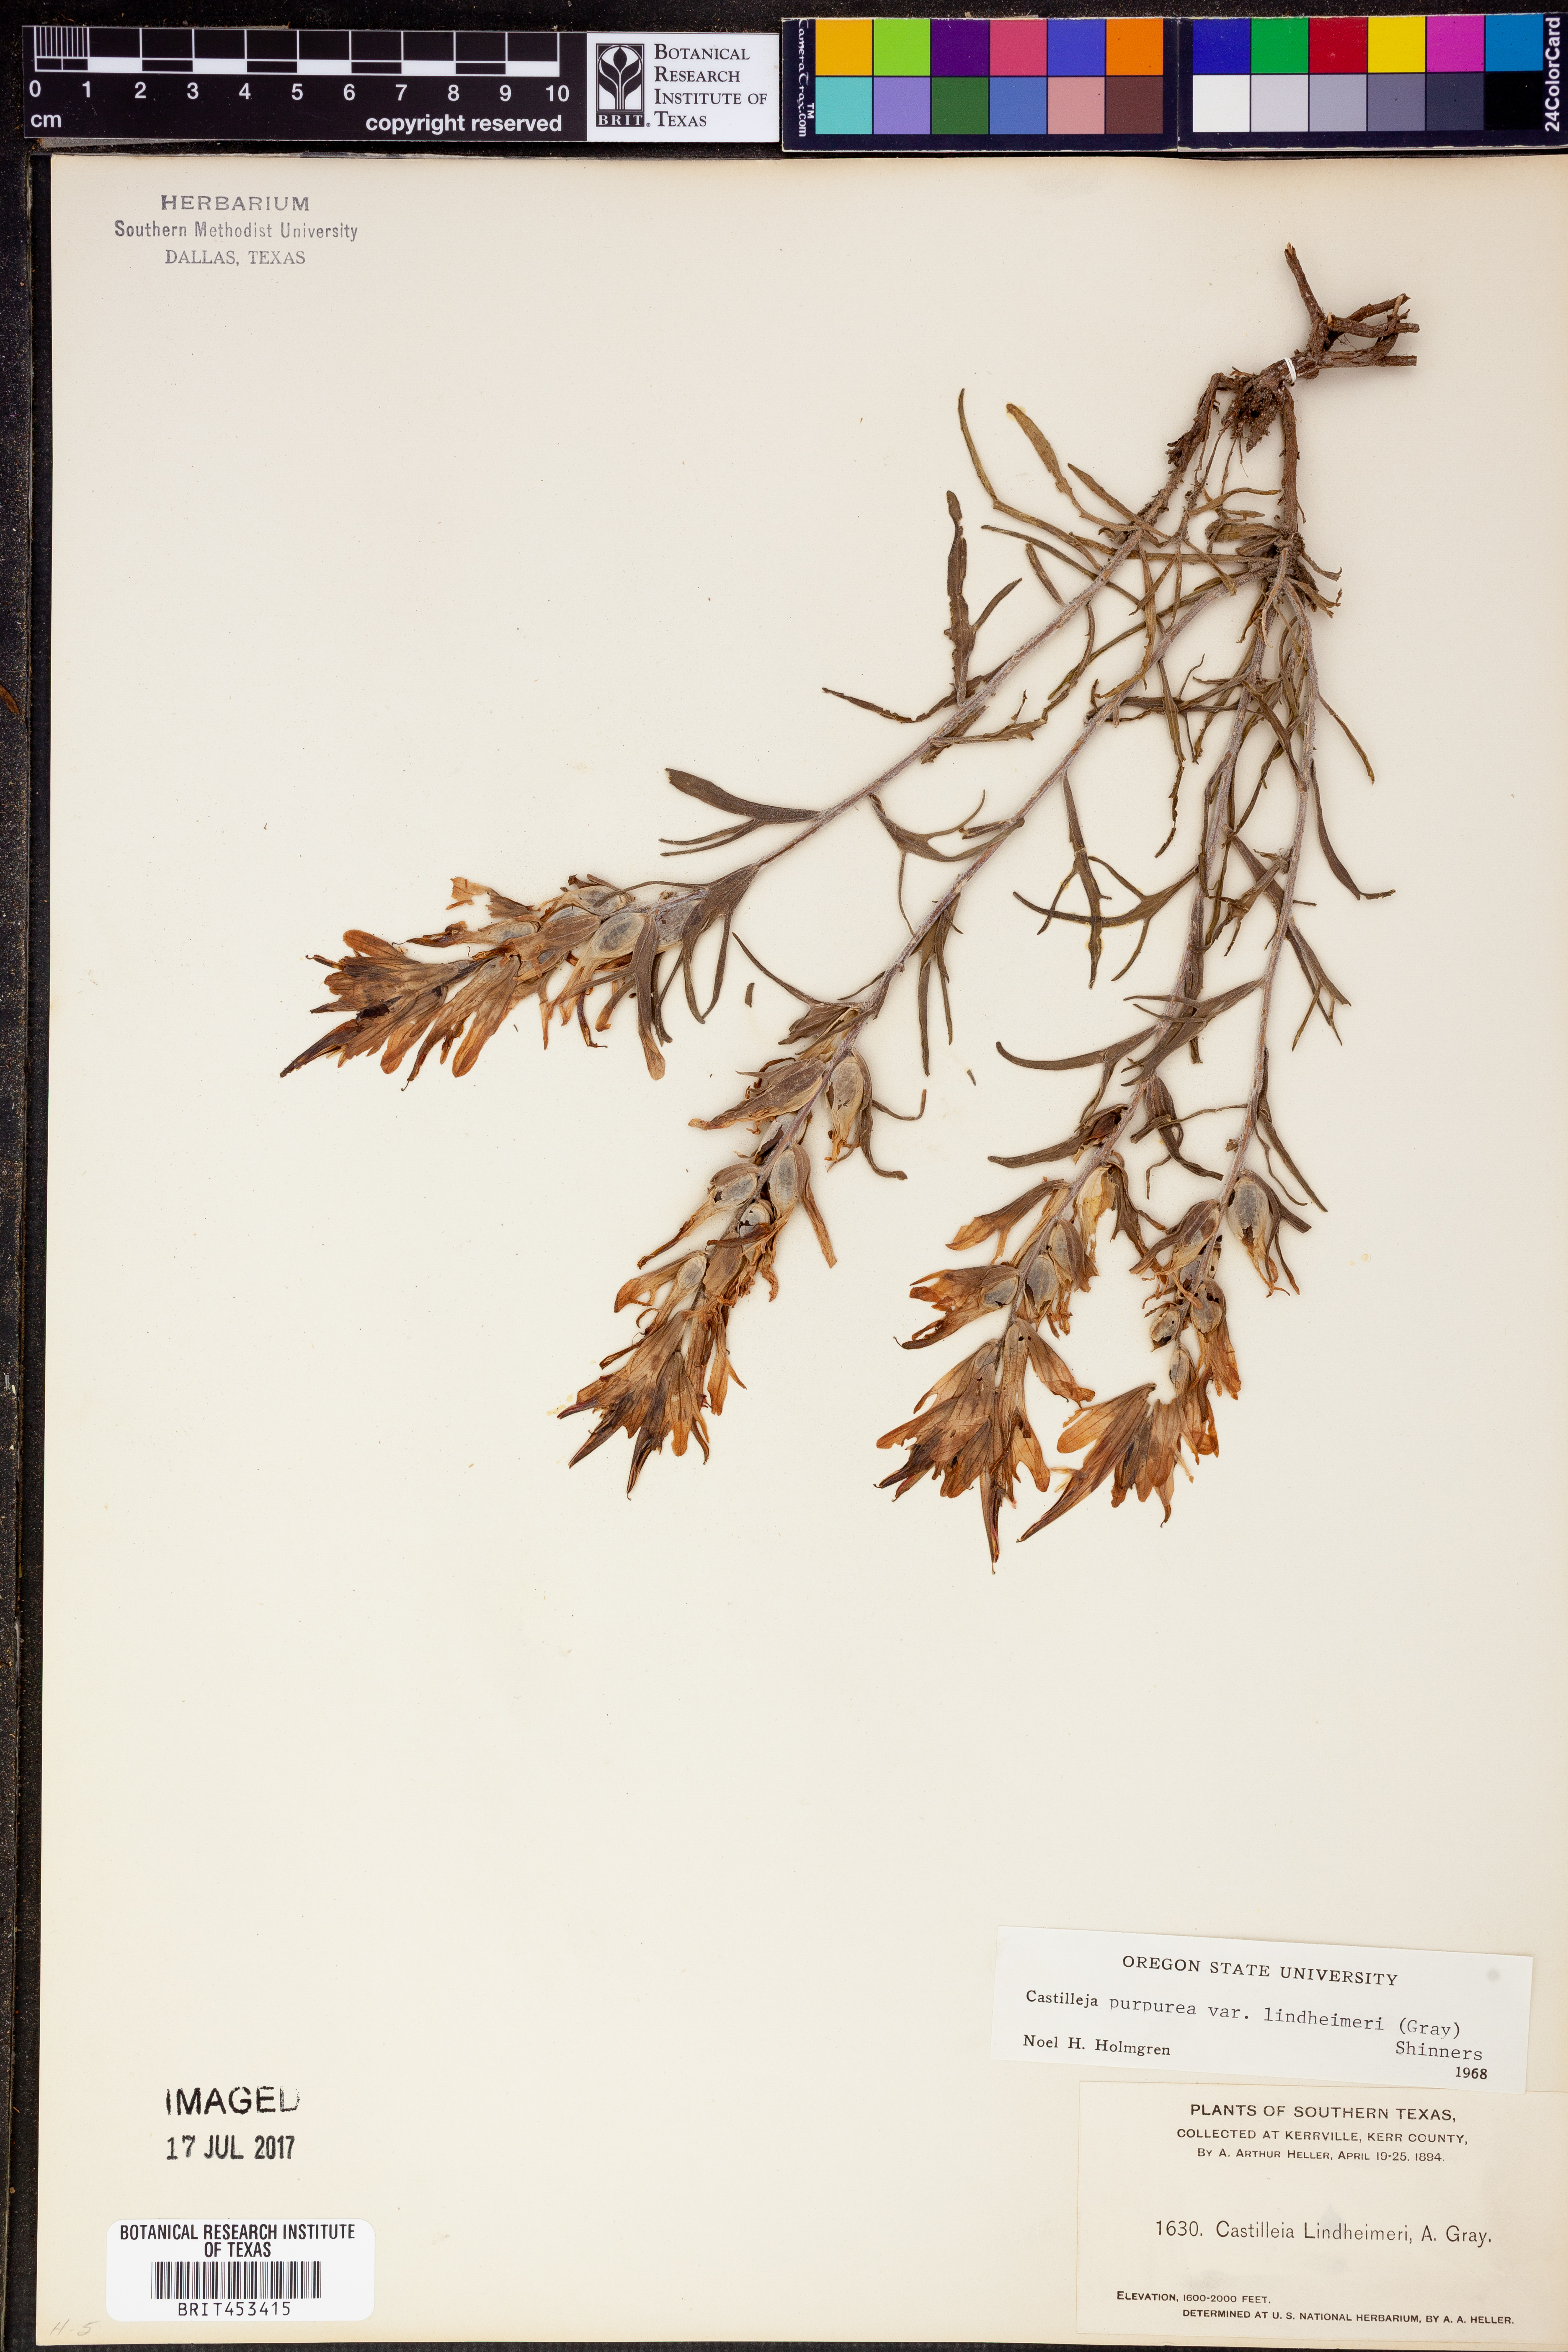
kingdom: Plantae
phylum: Tracheophyta
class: Magnoliopsida
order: Lamiales
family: Orobanchaceae
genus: Castilleja
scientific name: Castilleja lindheimeri
